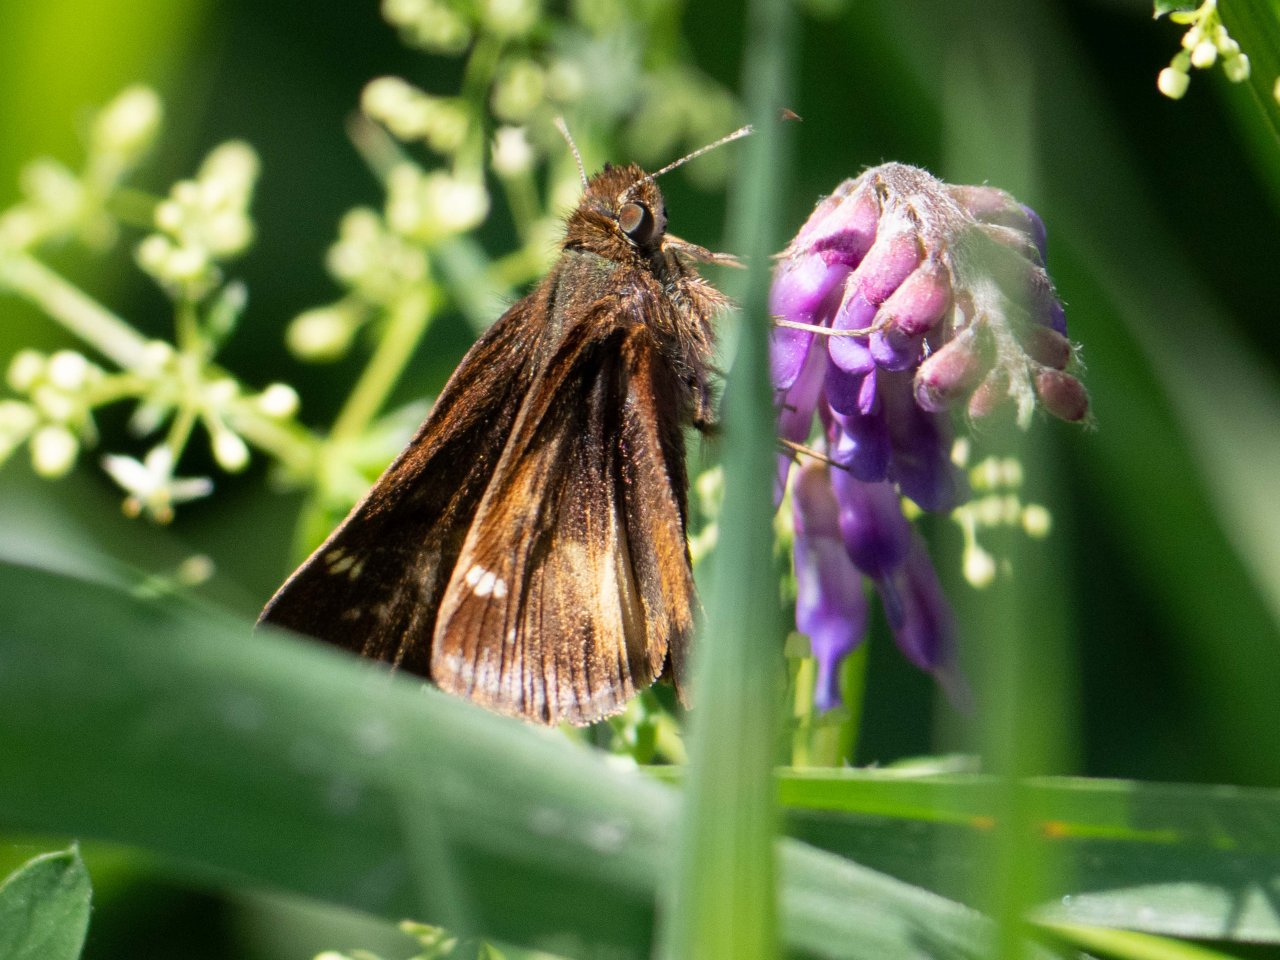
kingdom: Animalia
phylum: Arthropoda
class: Insecta
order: Lepidoptera
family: Hesperiidae
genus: Lon
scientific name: Lon hobomok
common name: Hobomok Skipper
